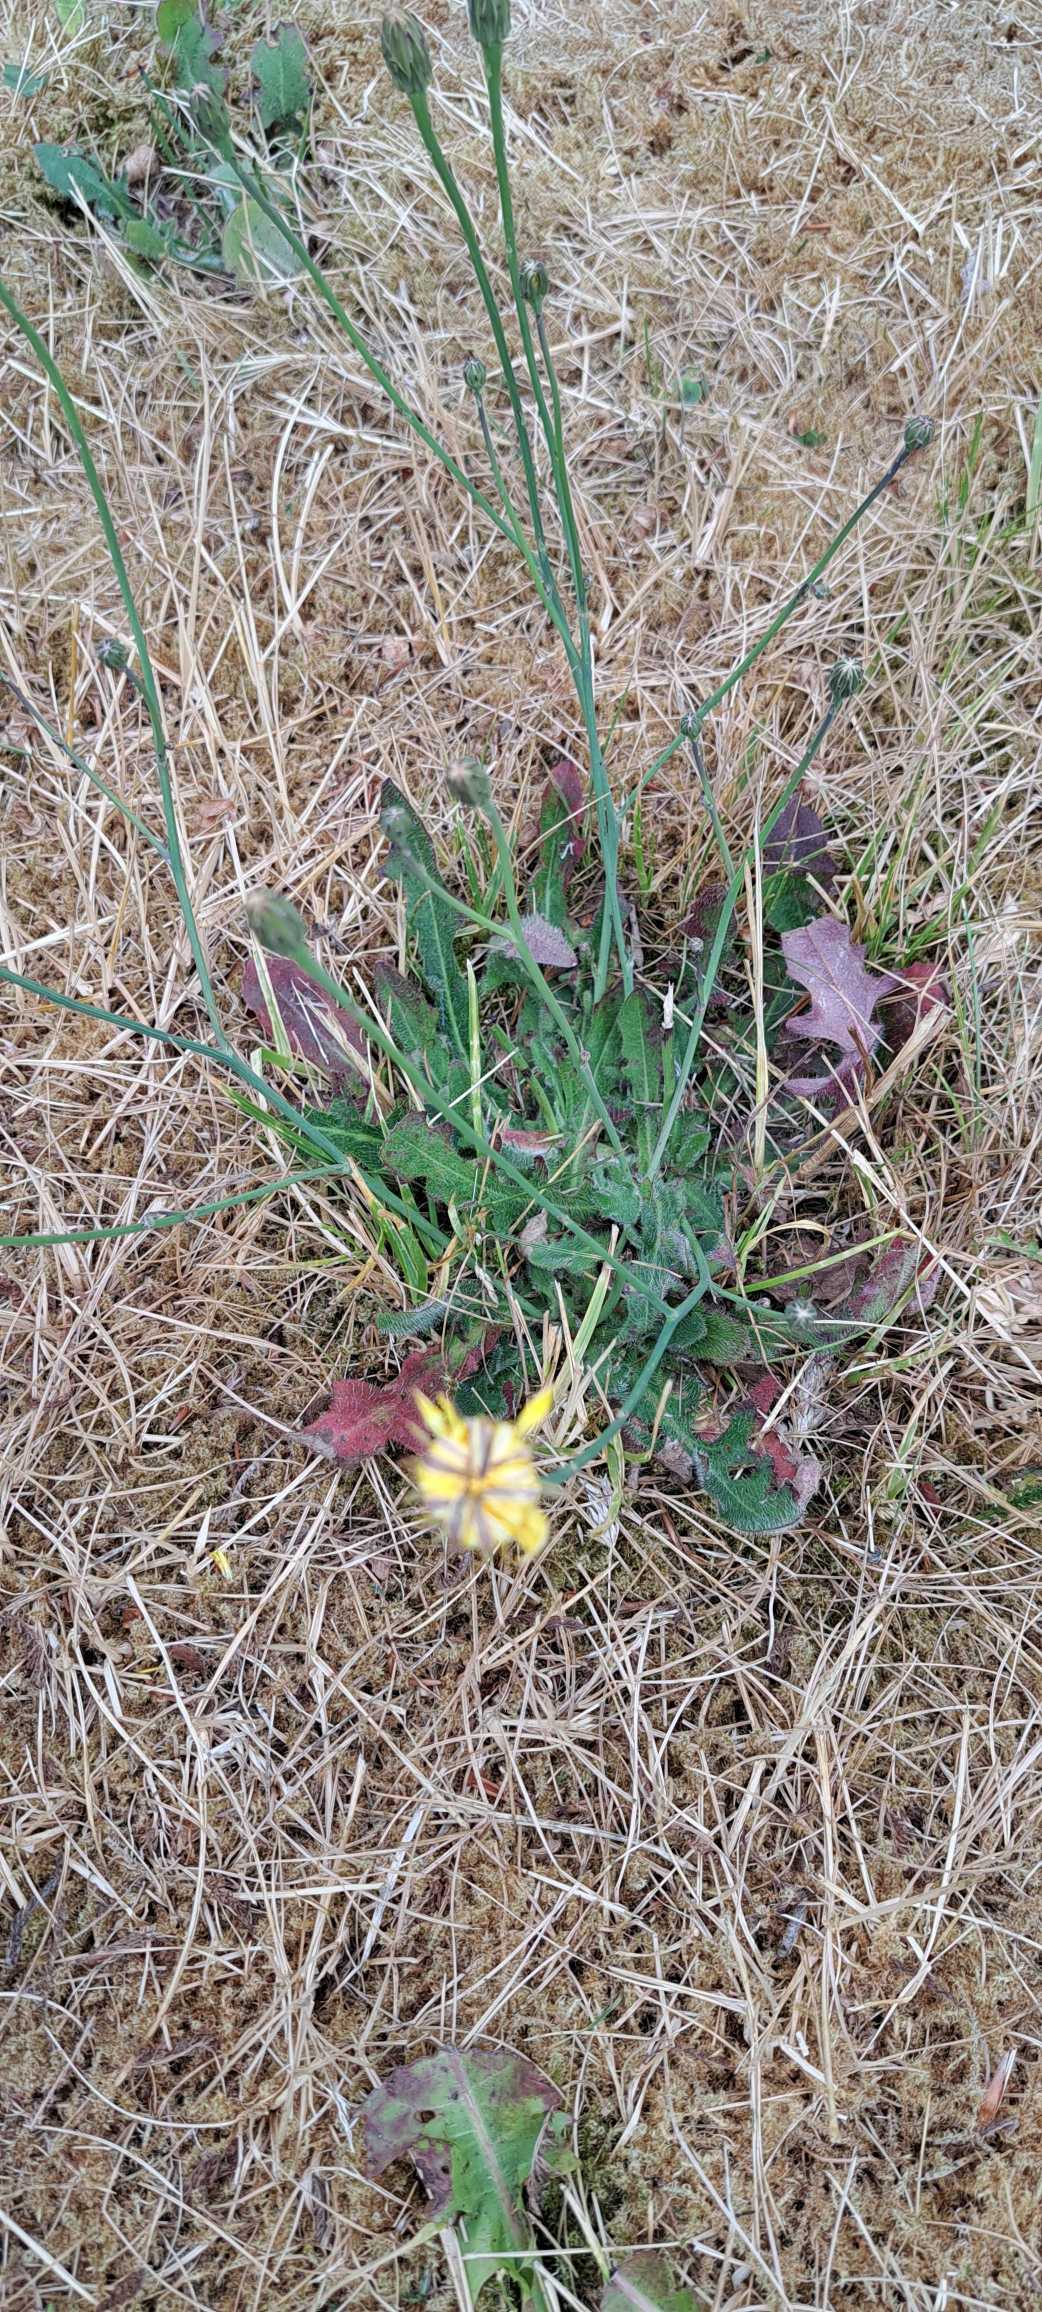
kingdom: Plantae
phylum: Tracheophyta
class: Magnoliopsida
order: Asterales
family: Asteraceae
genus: Hypochaeris
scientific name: Hypochaeris radicata
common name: Almindelig kongepen
